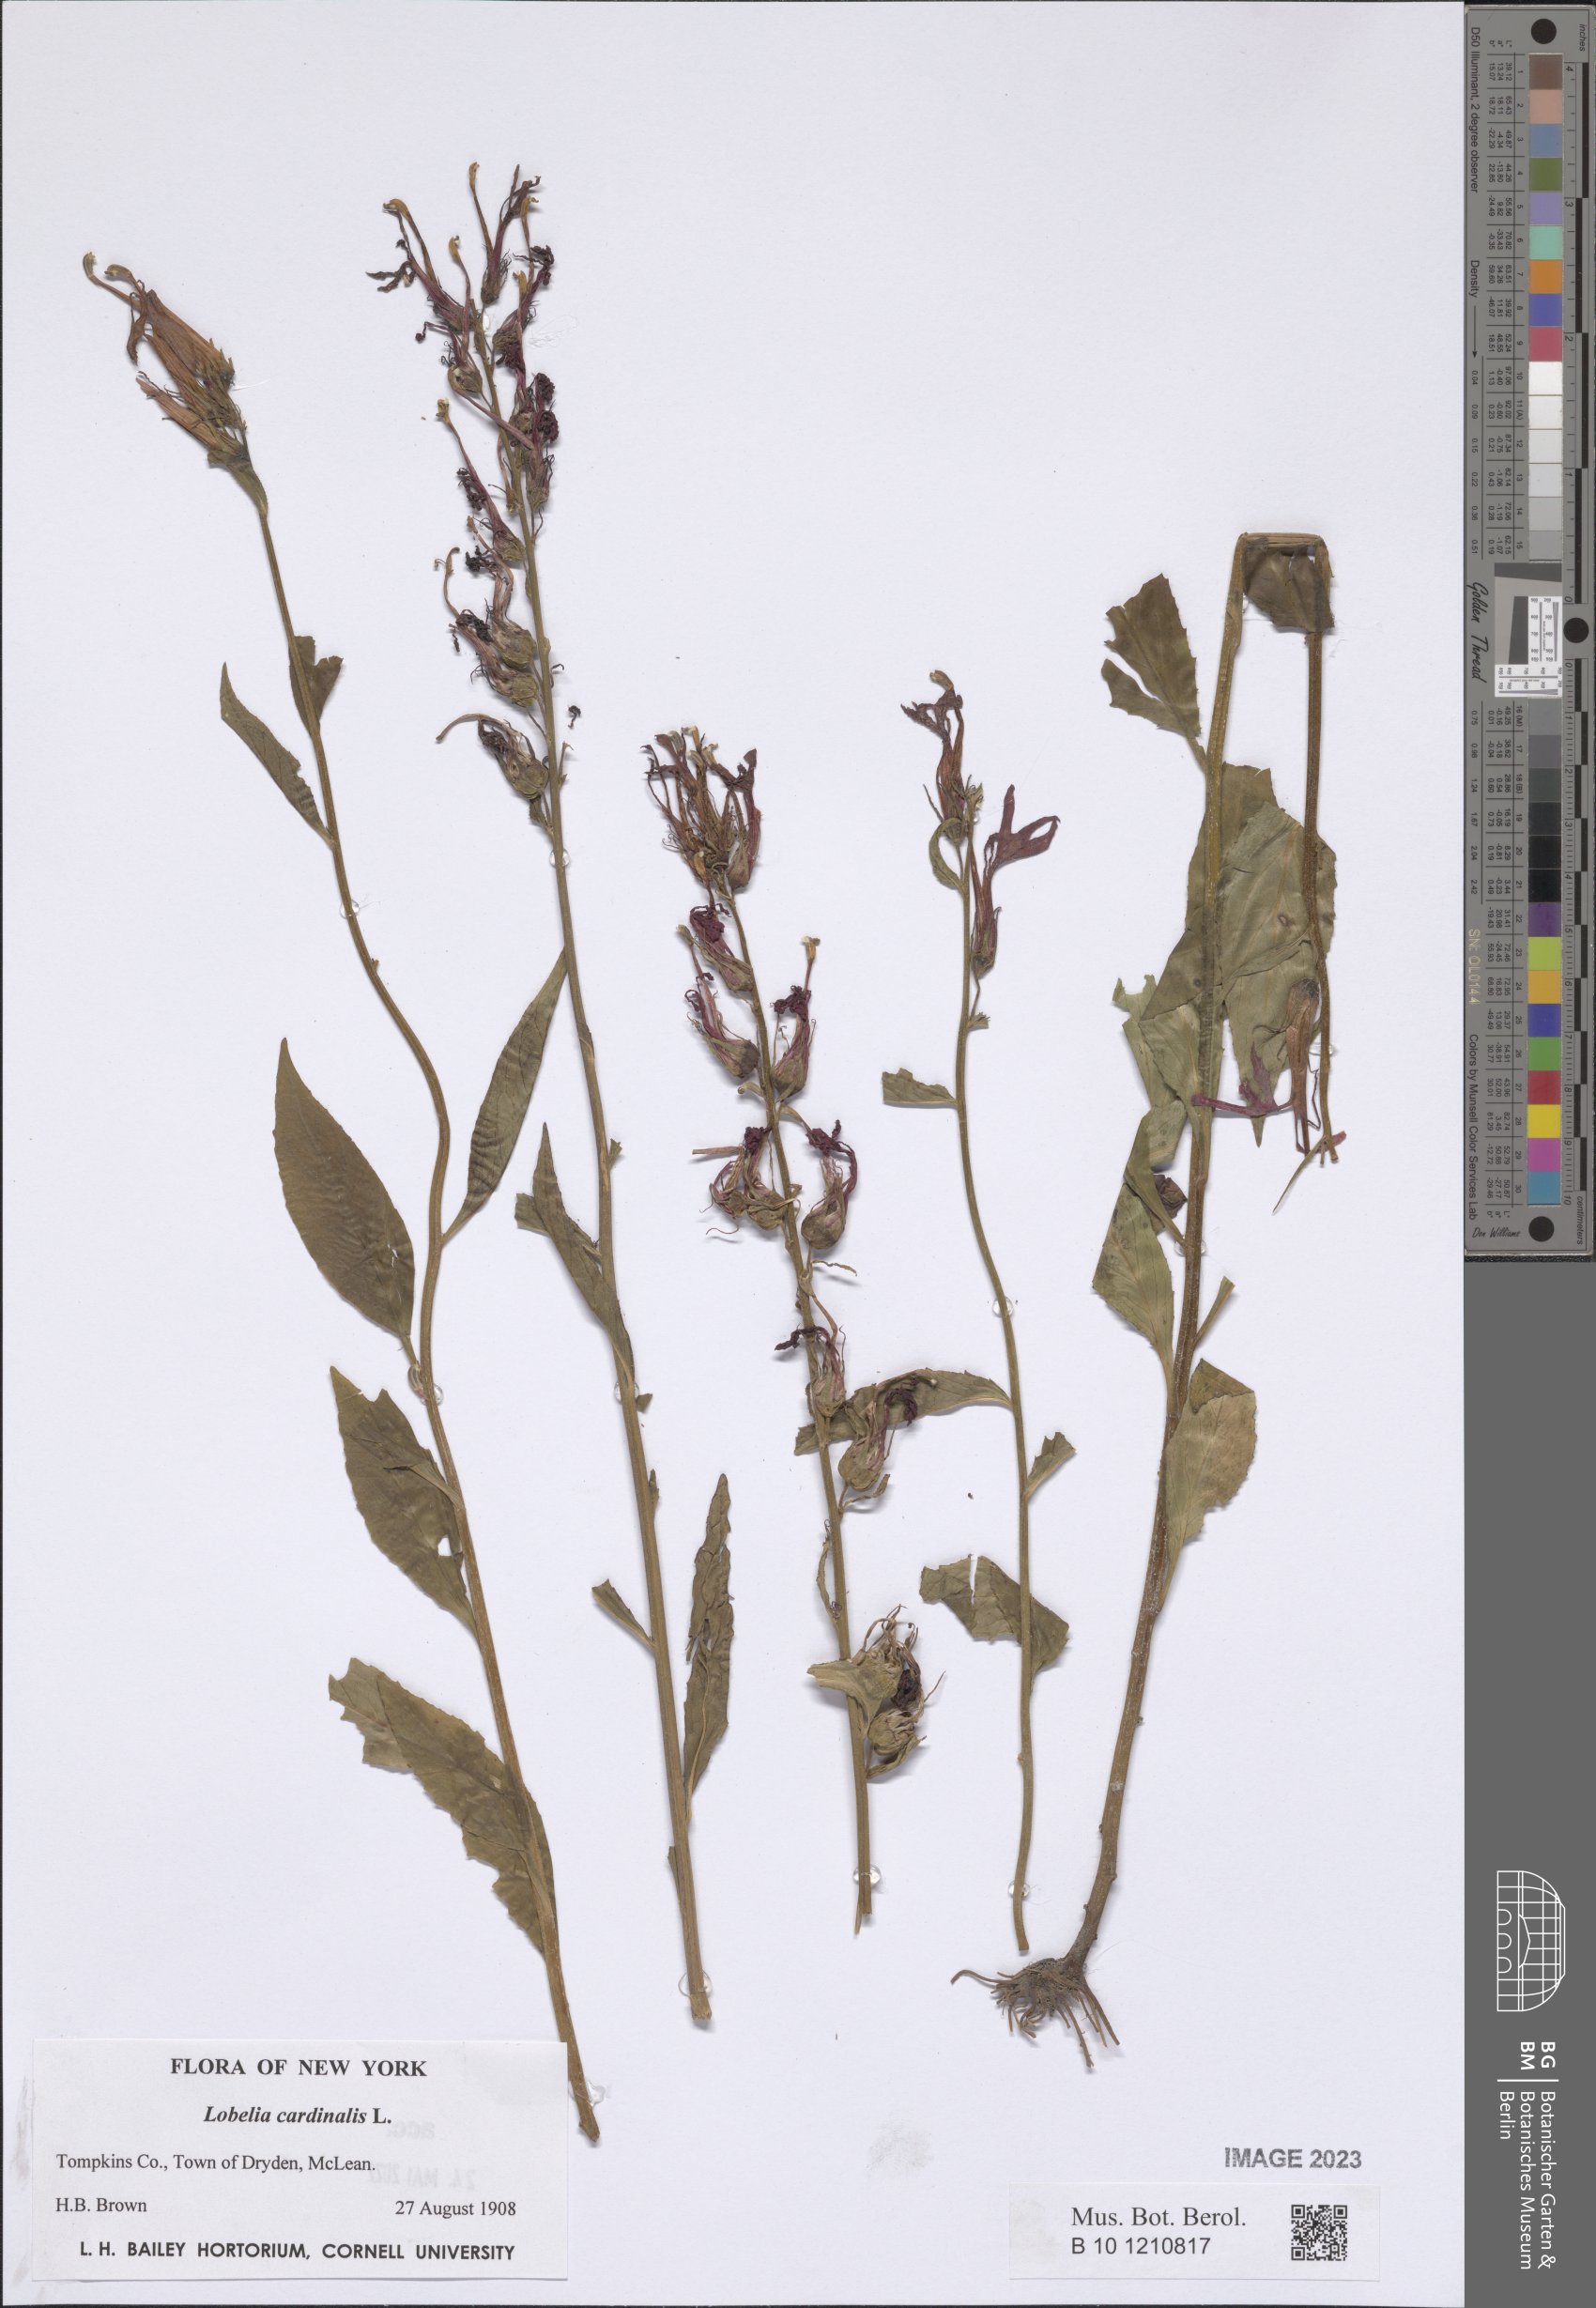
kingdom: Plantae
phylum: Tracheophyta
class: Magnoliopsida
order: Asterales
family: Campanulaceae
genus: Lobelia
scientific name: Lobelia cardinalis
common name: Cardinal flower
